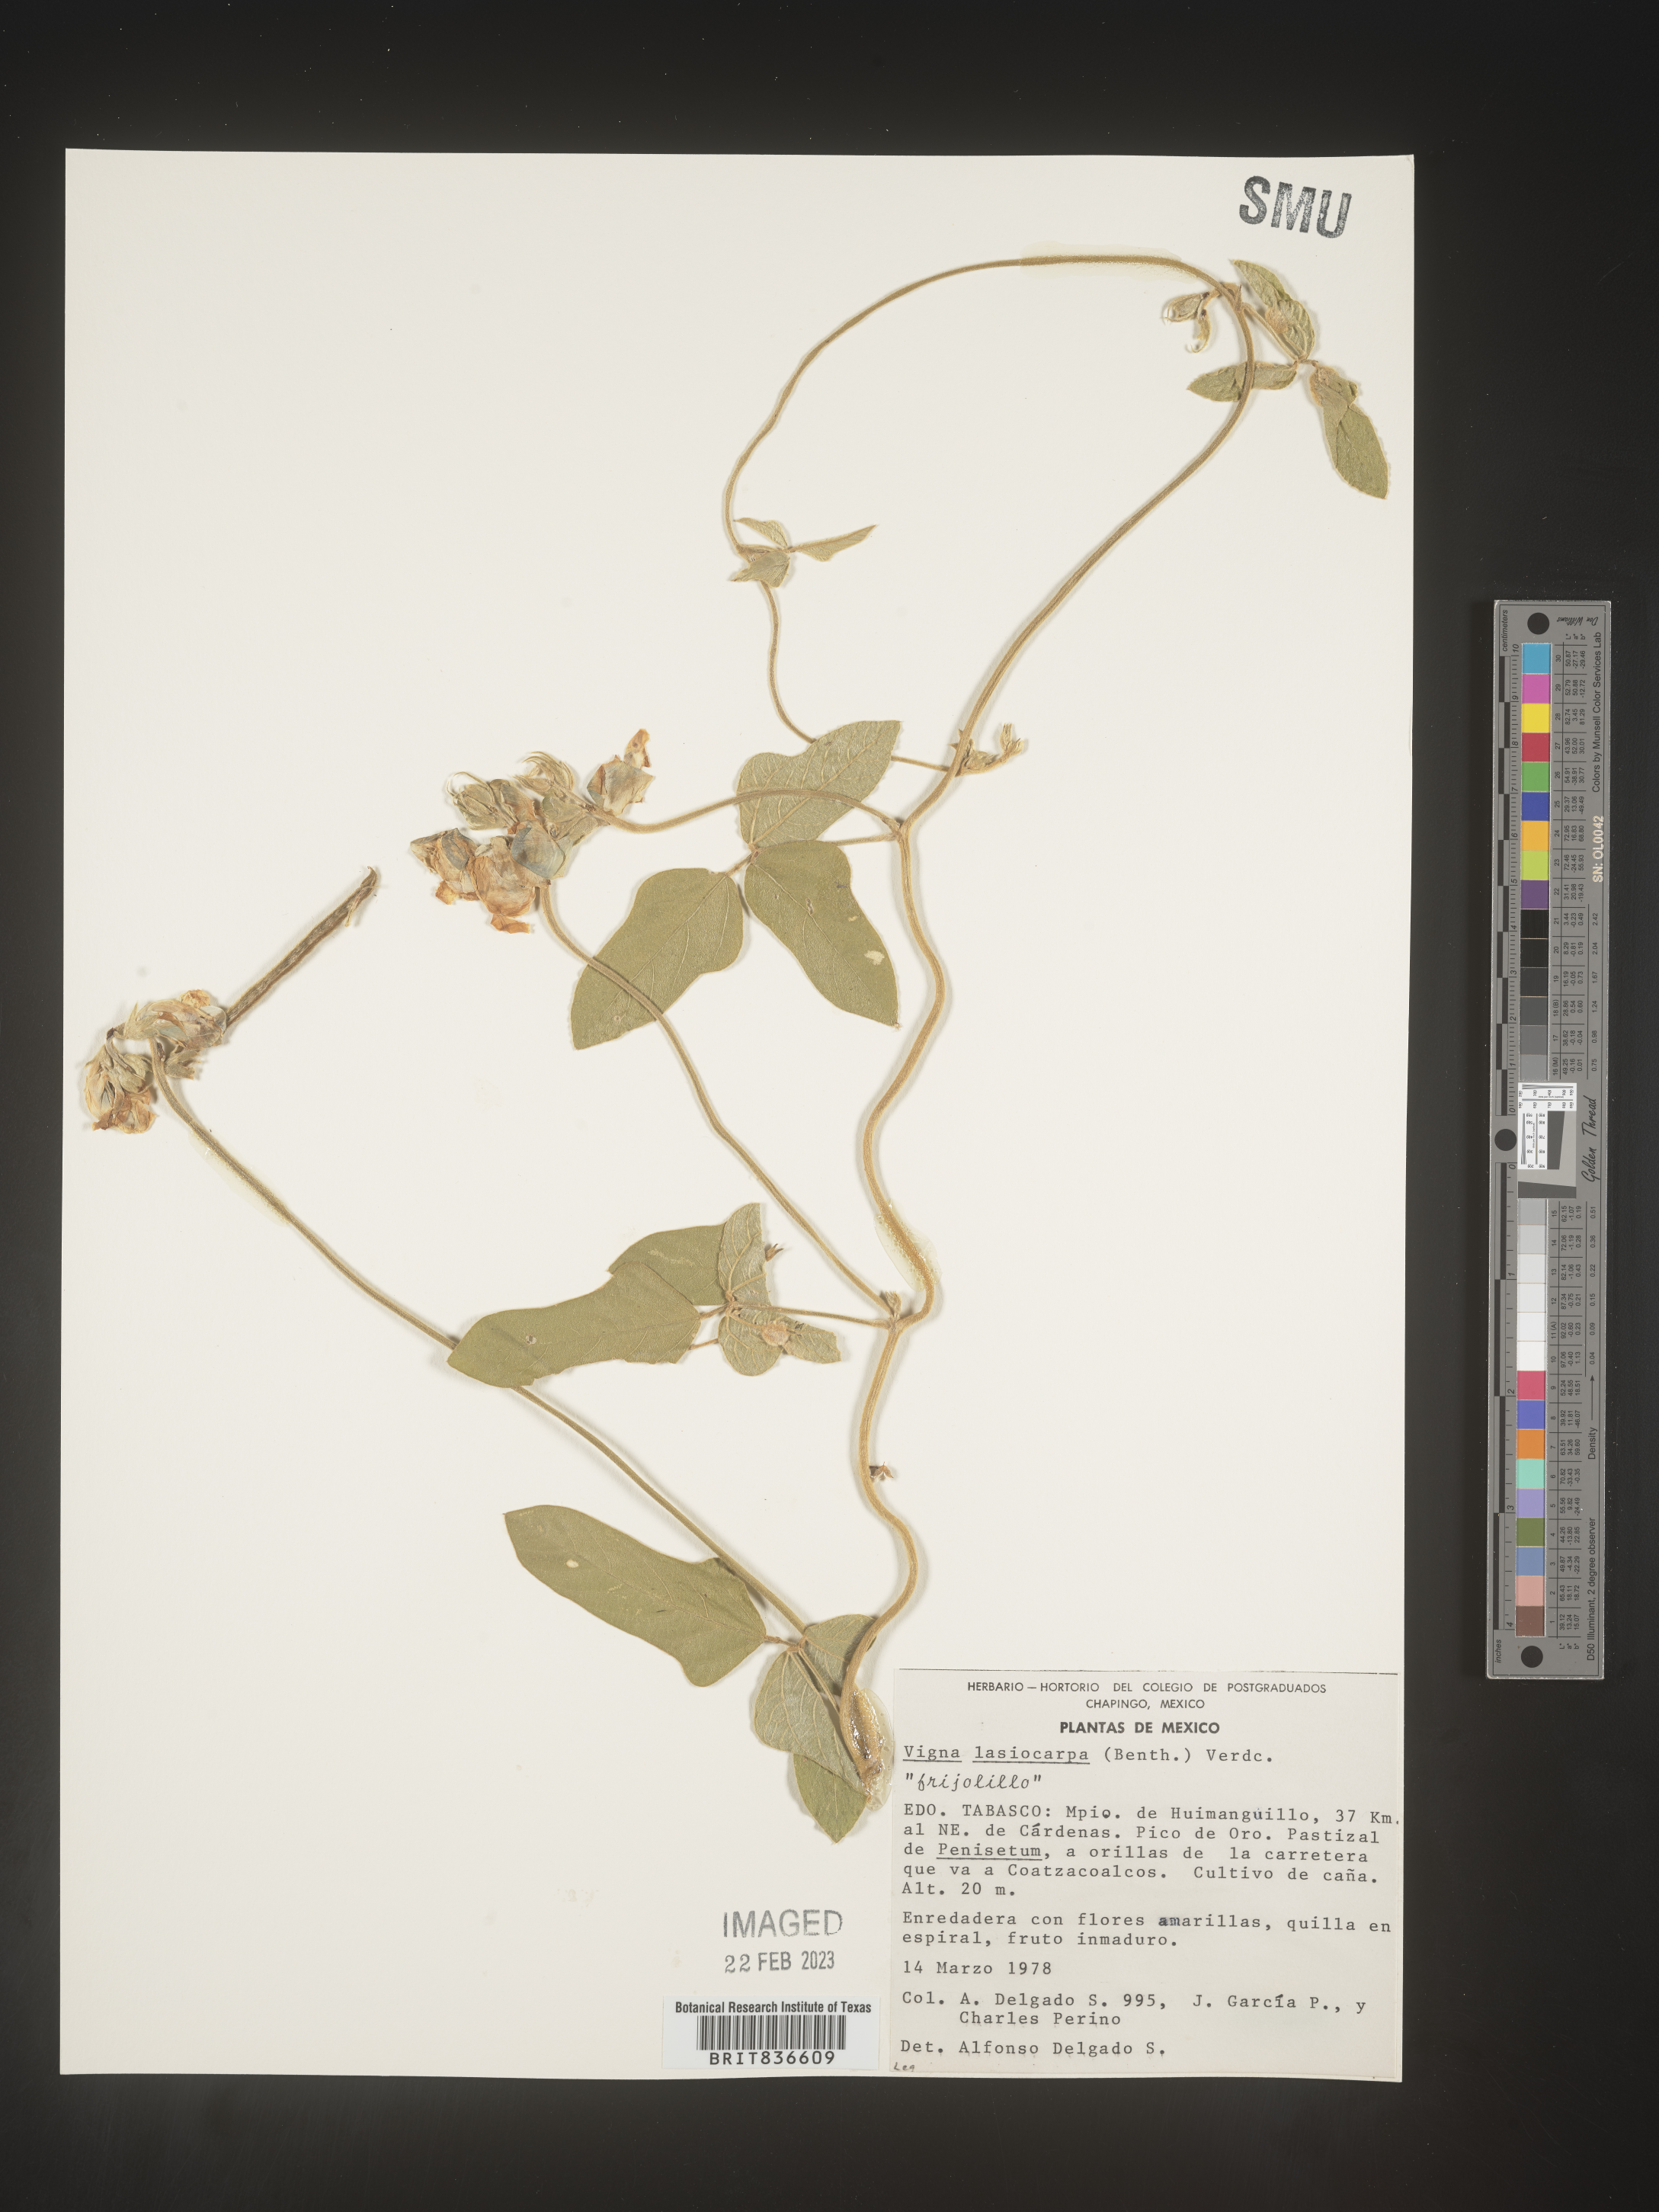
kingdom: Plantae
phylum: Tracheophyta
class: Magnoliopsida
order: Fabales
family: Fabaceae
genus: Vigna
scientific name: Vigna
